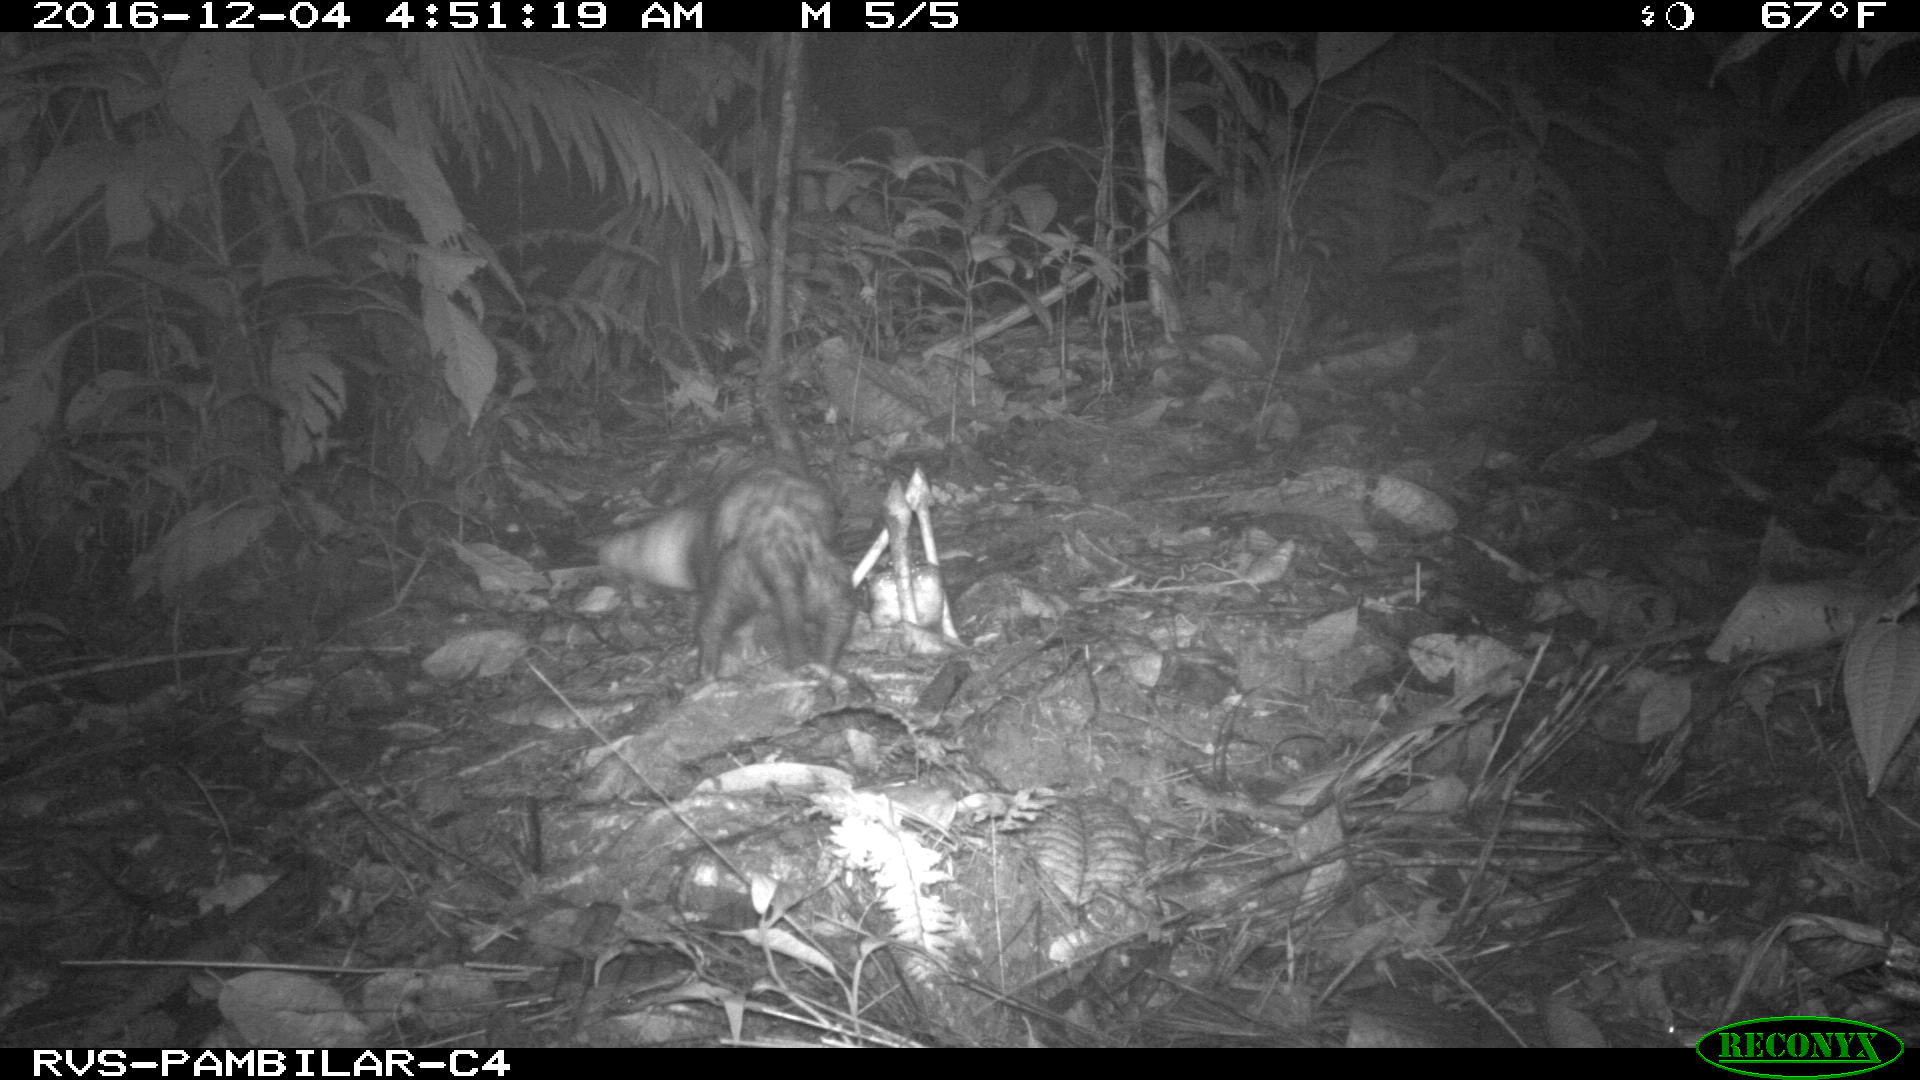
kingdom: Animalia
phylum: Chordata
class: Mammalia
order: Didelphimorphia
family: Didelphidae
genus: Didelphis
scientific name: Didelphis marsupialis
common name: Common opossum
